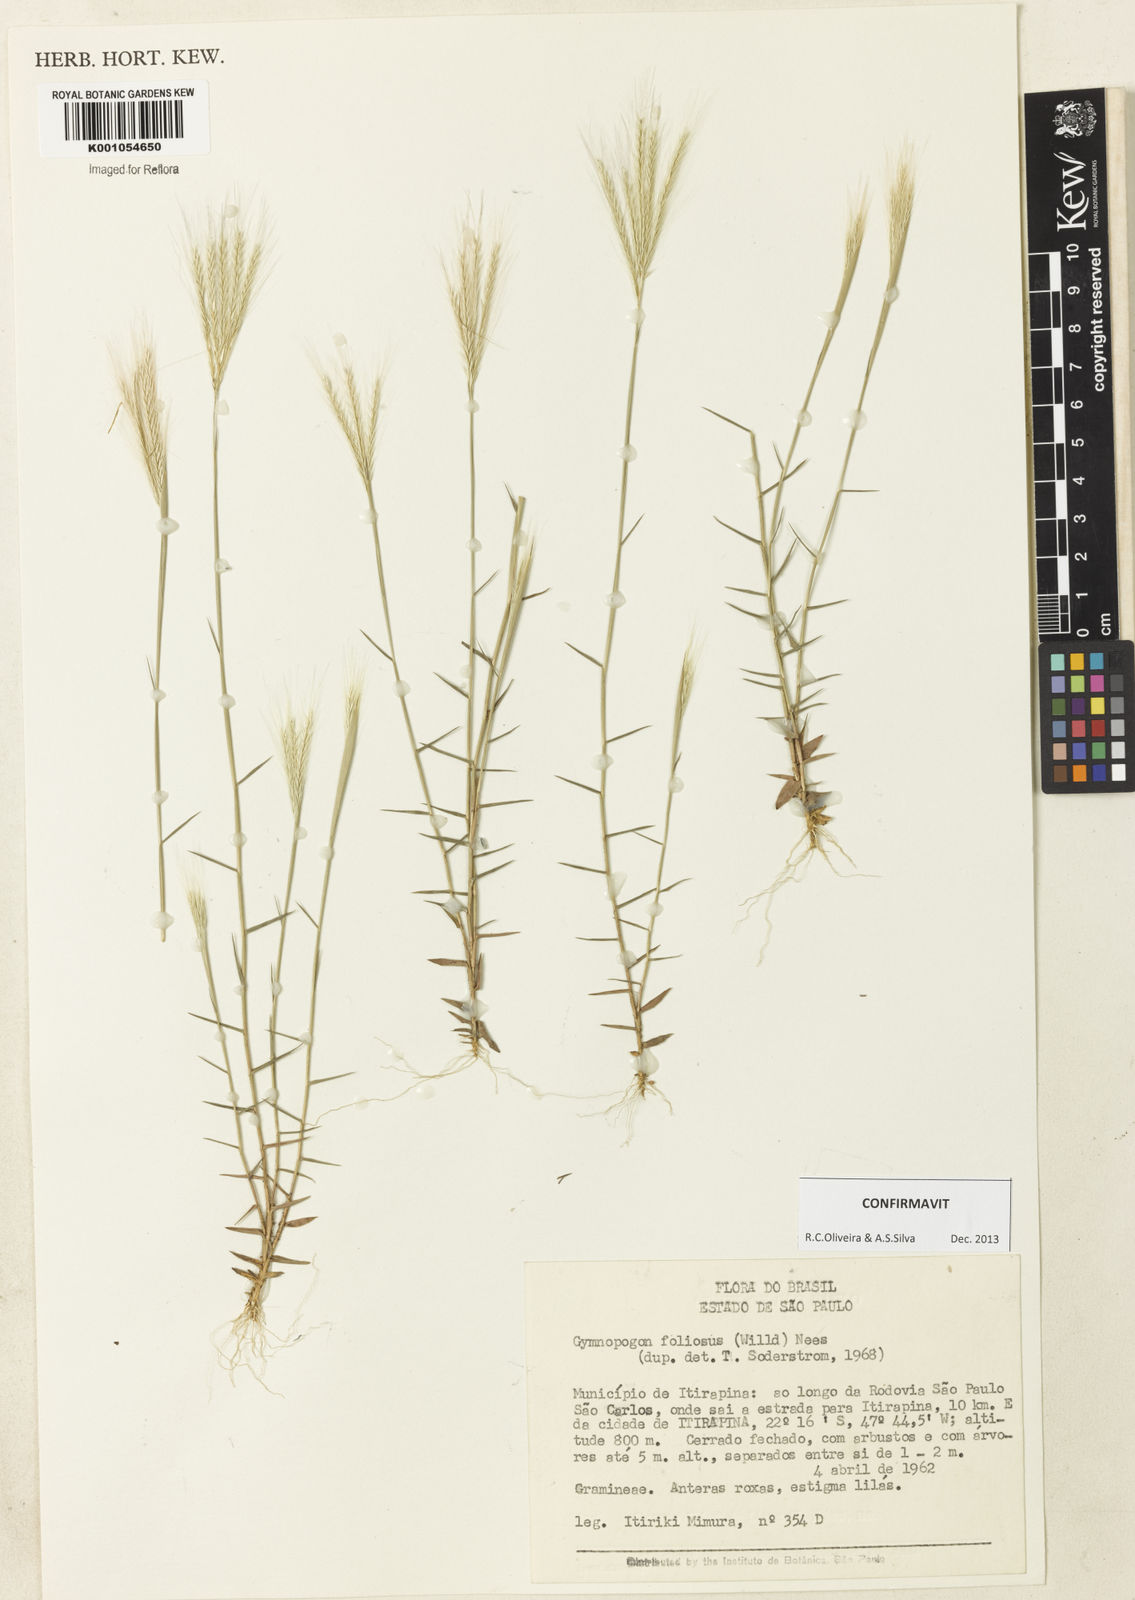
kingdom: Plantae
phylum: Tracheophyta
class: Liliopsida
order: Poales
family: Poaceae
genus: Gymnopogon
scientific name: Gymnopogon foliosus
